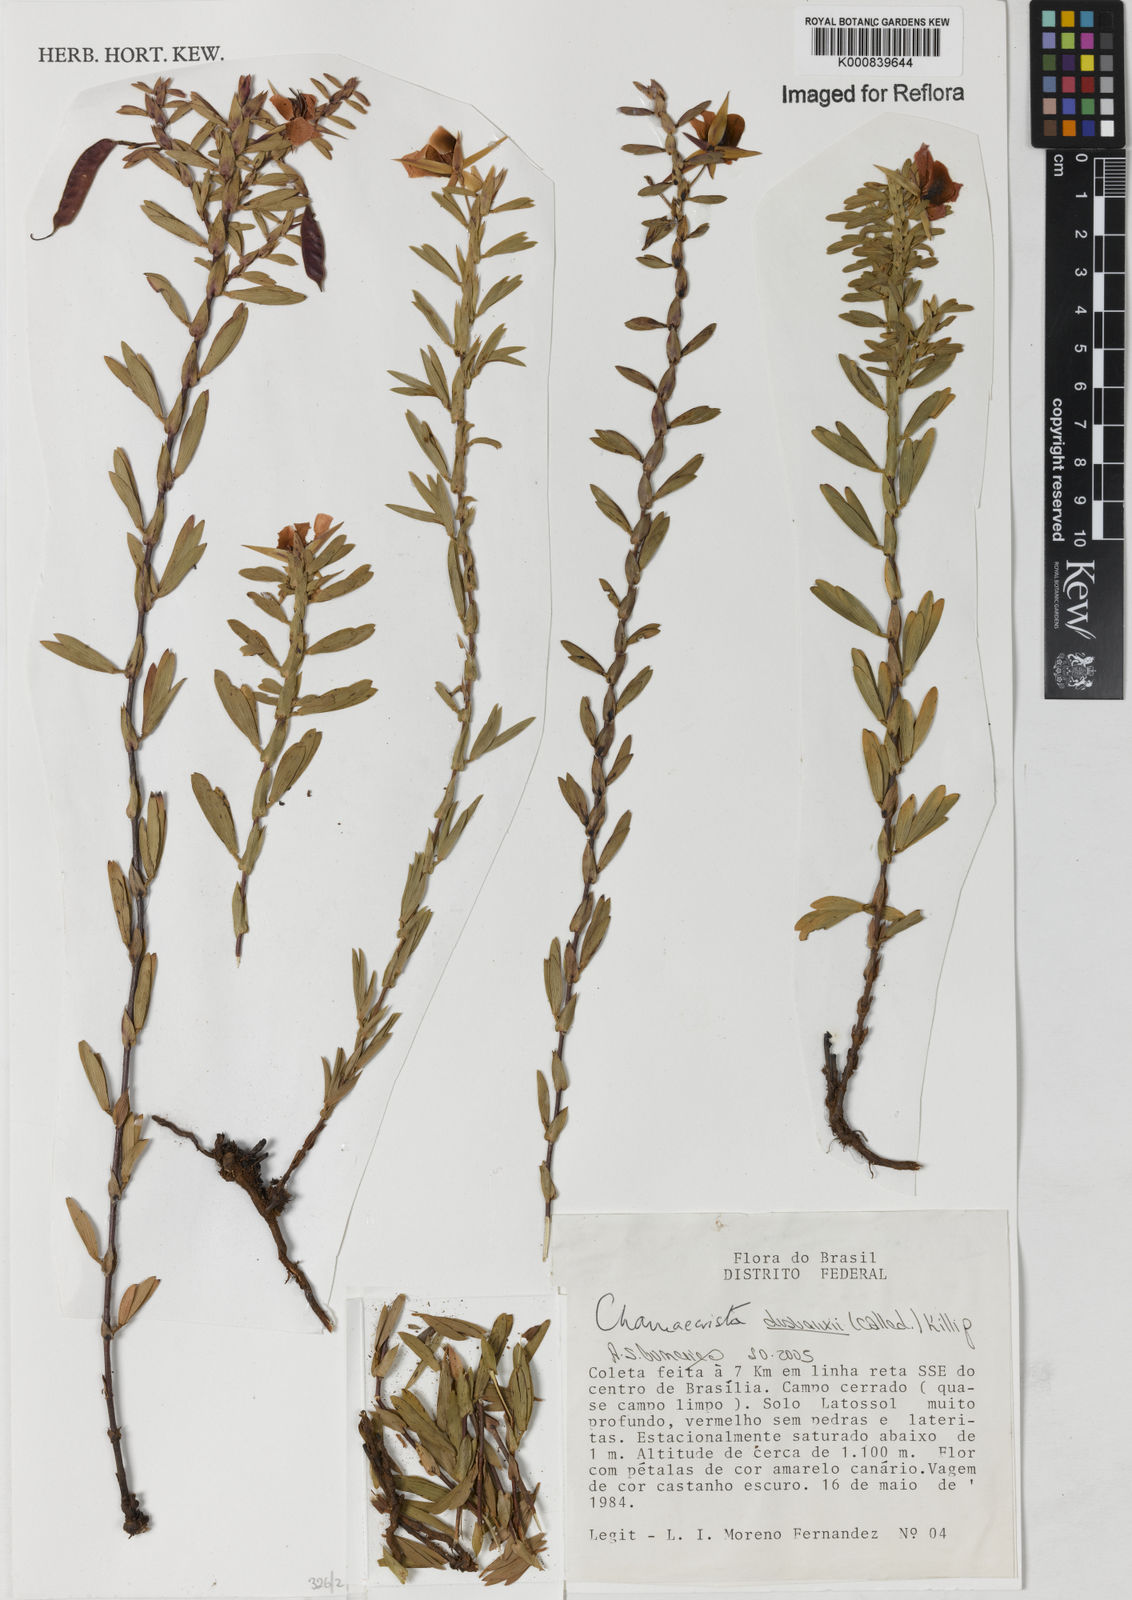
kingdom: Plantae
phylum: Tracheophyta
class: Magnoliopsida
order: Fabales
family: Fabaceae
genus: Chamaecrista
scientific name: Chamaecrista langsdorffii
